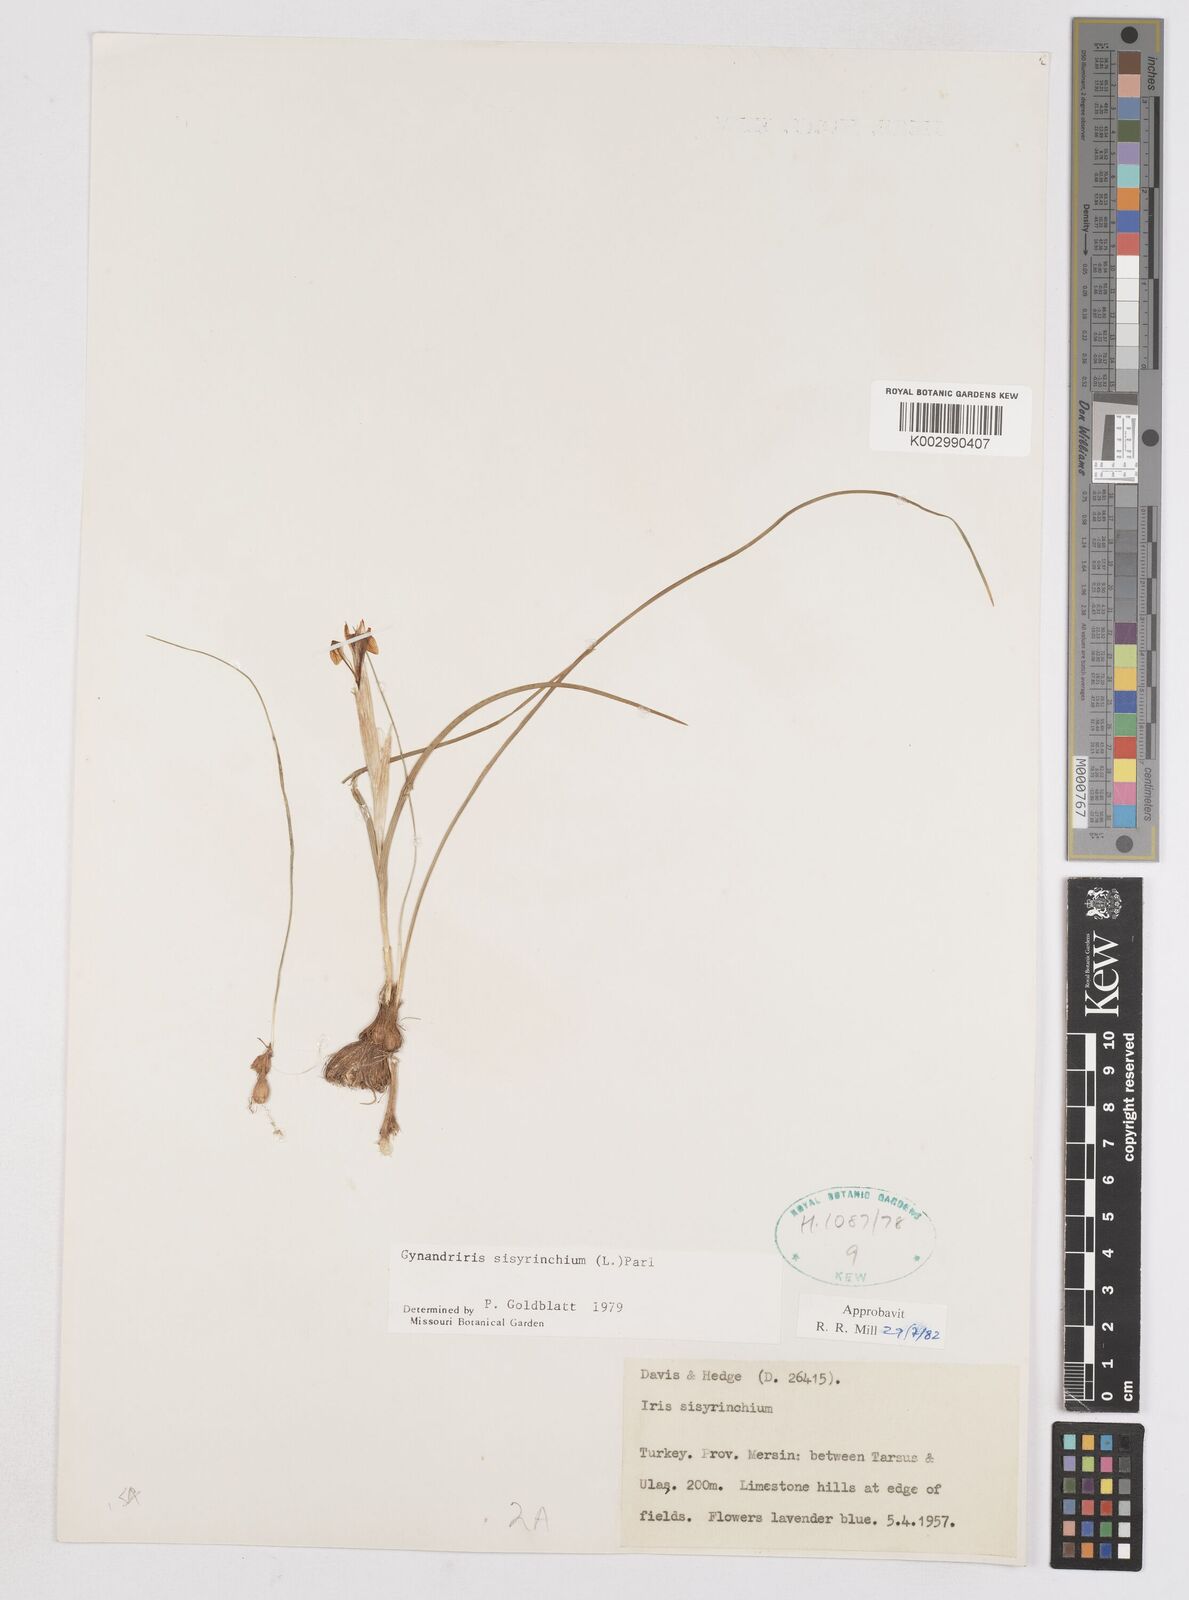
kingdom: Plantae
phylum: Tracheophyta
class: Liliopsida
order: Asparagales
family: Iridaceae
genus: Moraea
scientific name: Moraea sisyrinchium
